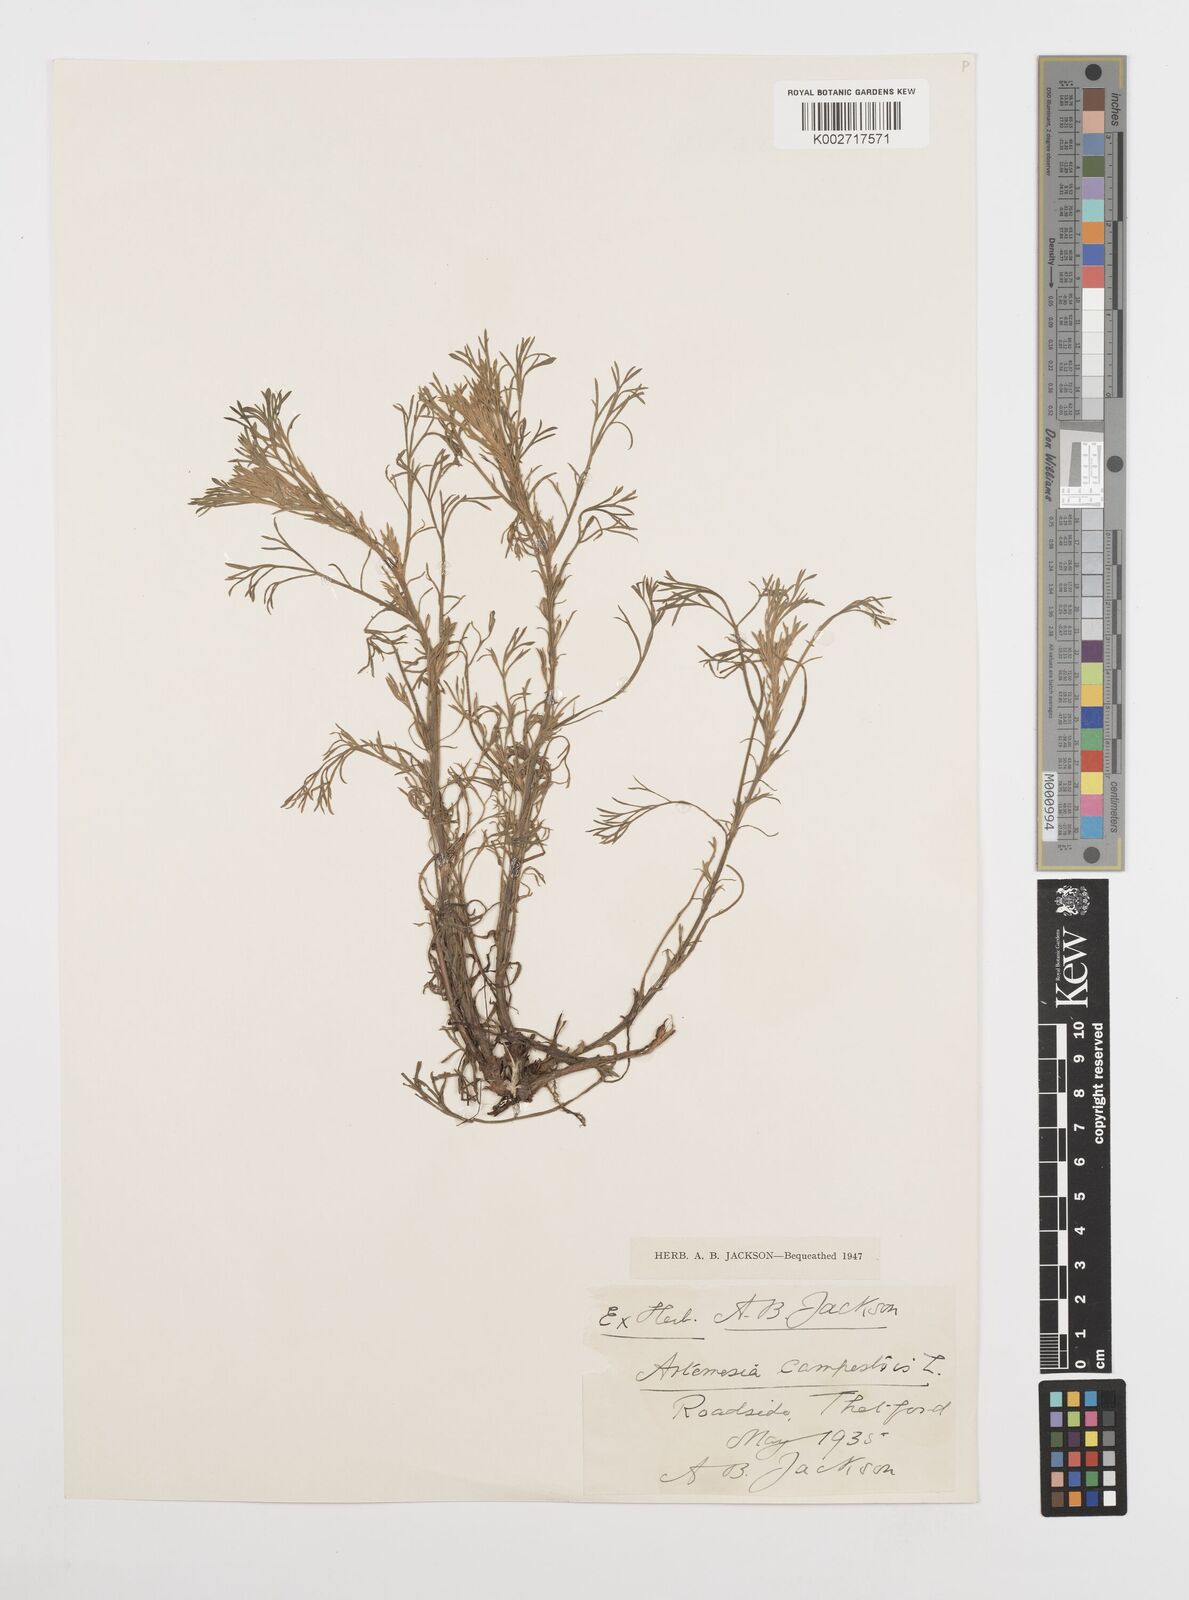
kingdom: Plantae
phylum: Tracheophyta
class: Magnoliopsida
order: Asterales
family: Asteraceae
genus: Artemisia
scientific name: Artemisia campestris
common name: Field wormwood
